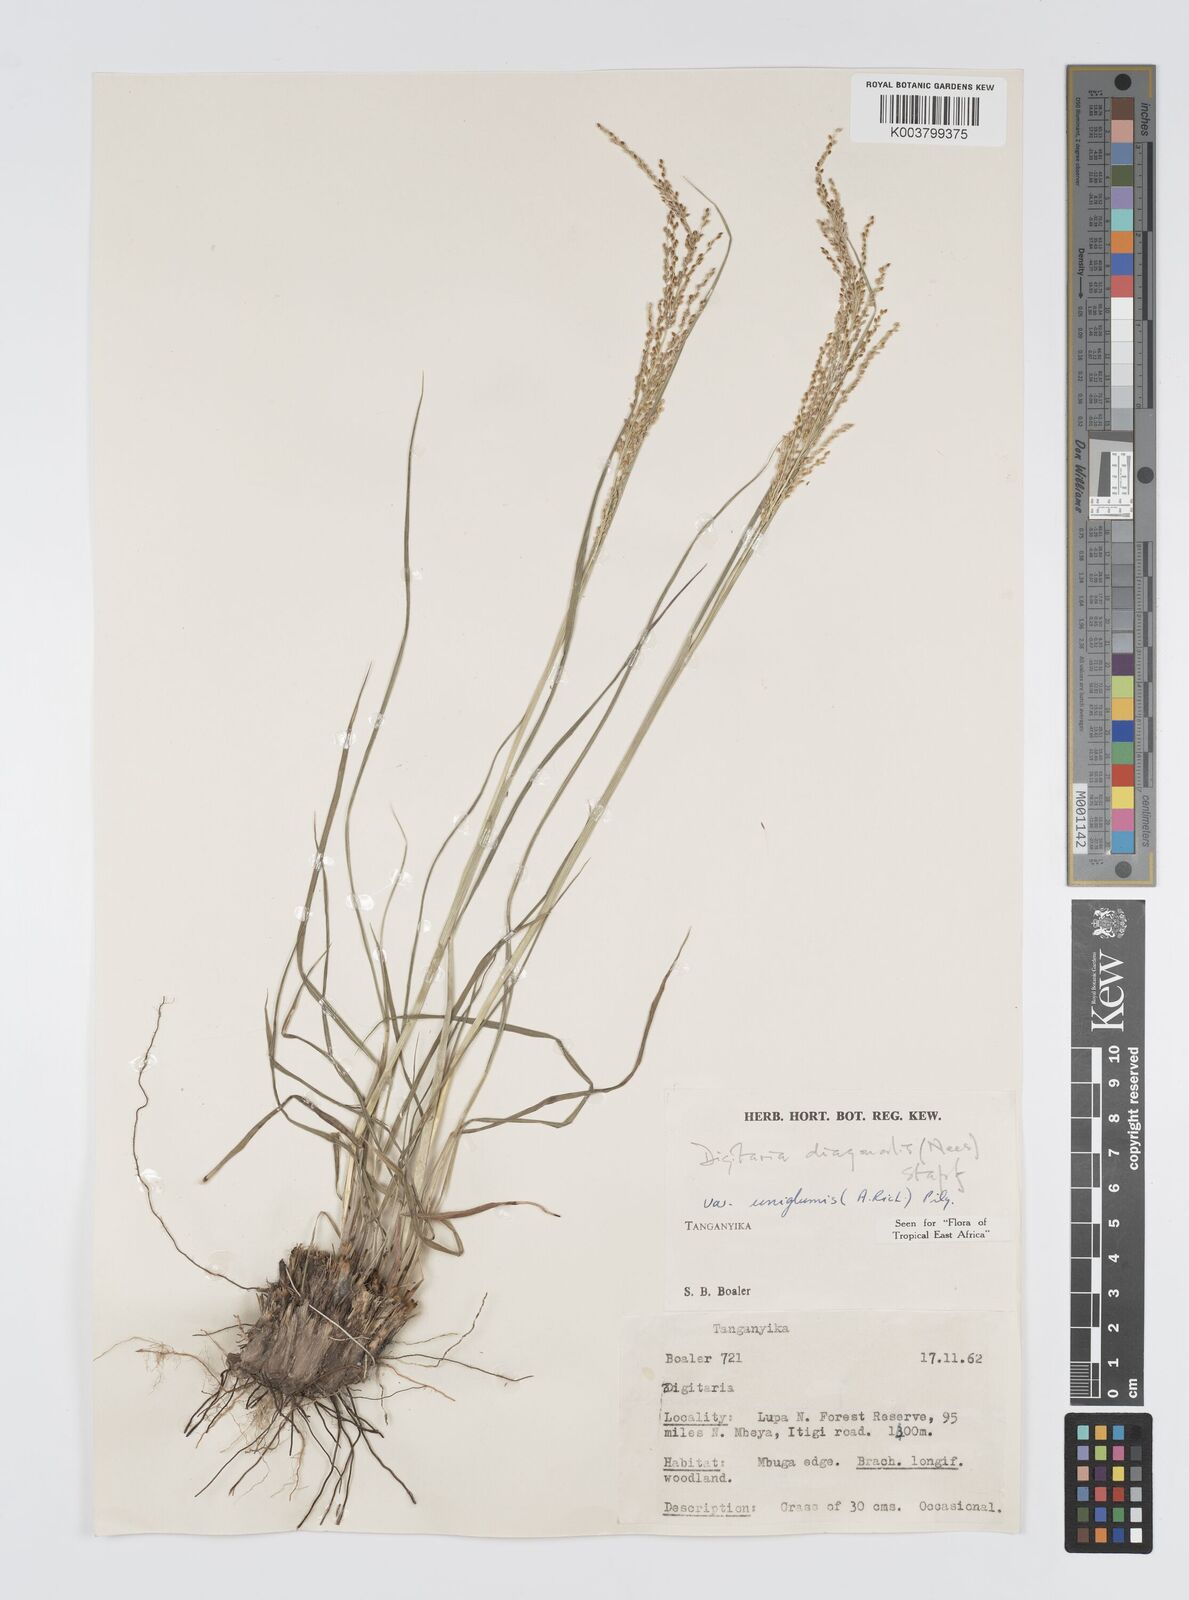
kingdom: Plantae
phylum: Tracheophyta
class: Liliopsida
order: Poales
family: Poaceae
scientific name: Poaceae
